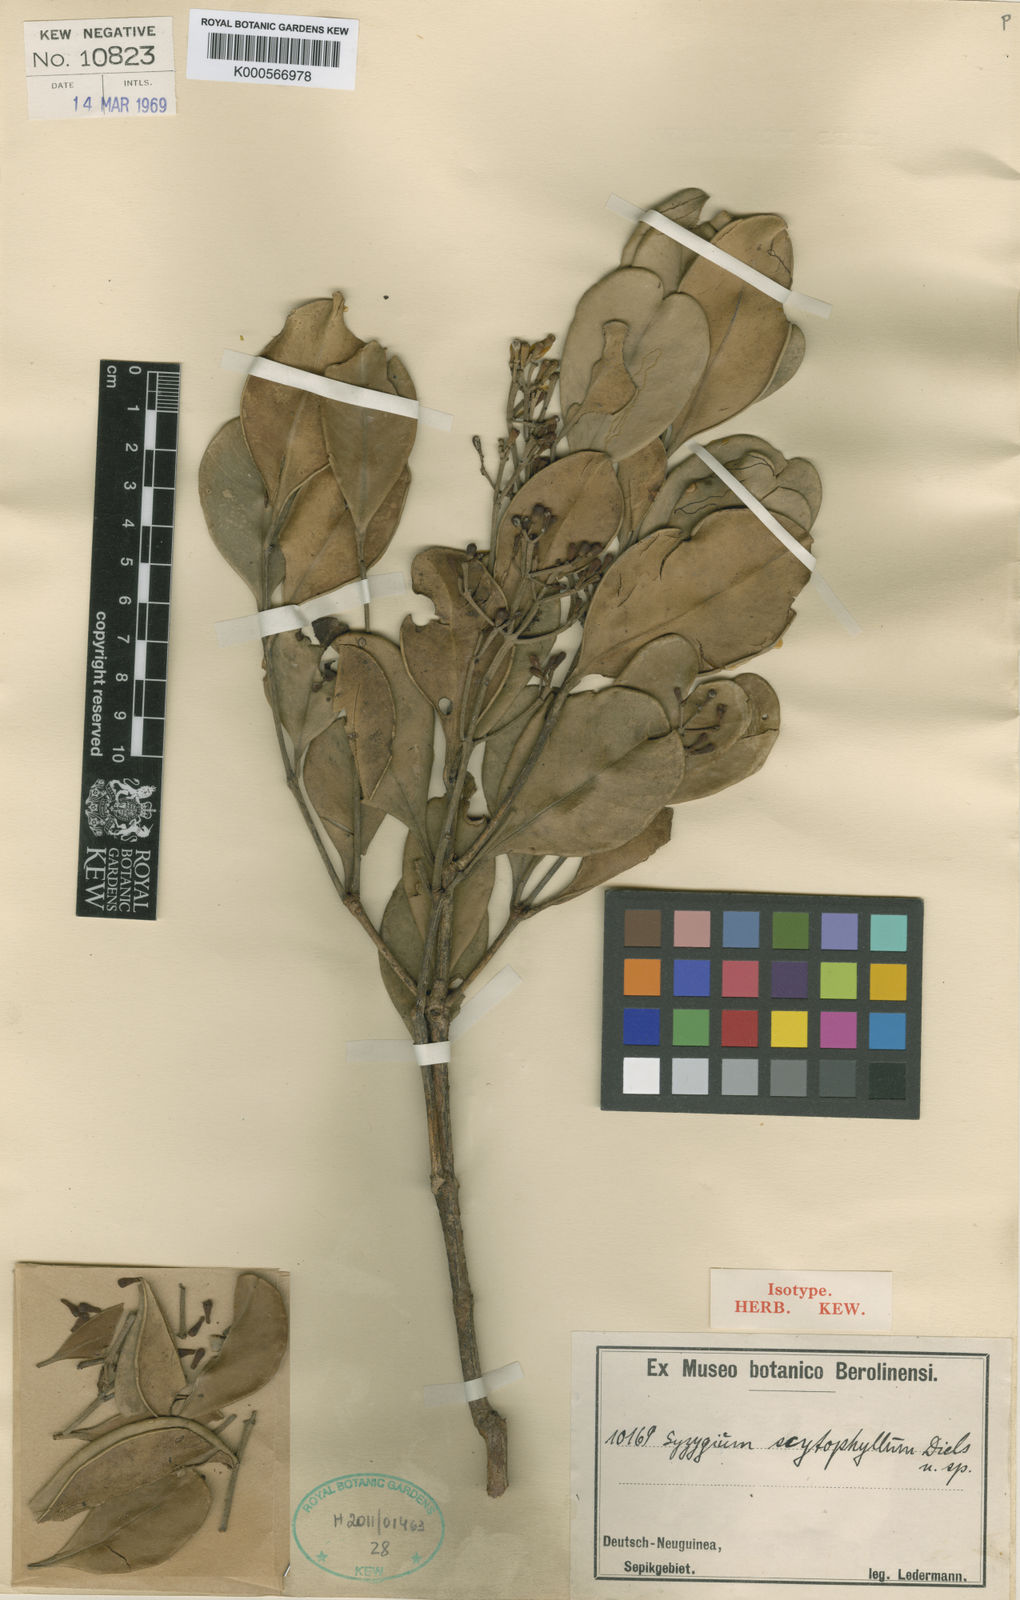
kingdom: Plantae
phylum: Tracheophyta
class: Magnoliopsida
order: Myrtales
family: Myrtaceae
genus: Syzygium
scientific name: Syzygium scytophyllum
